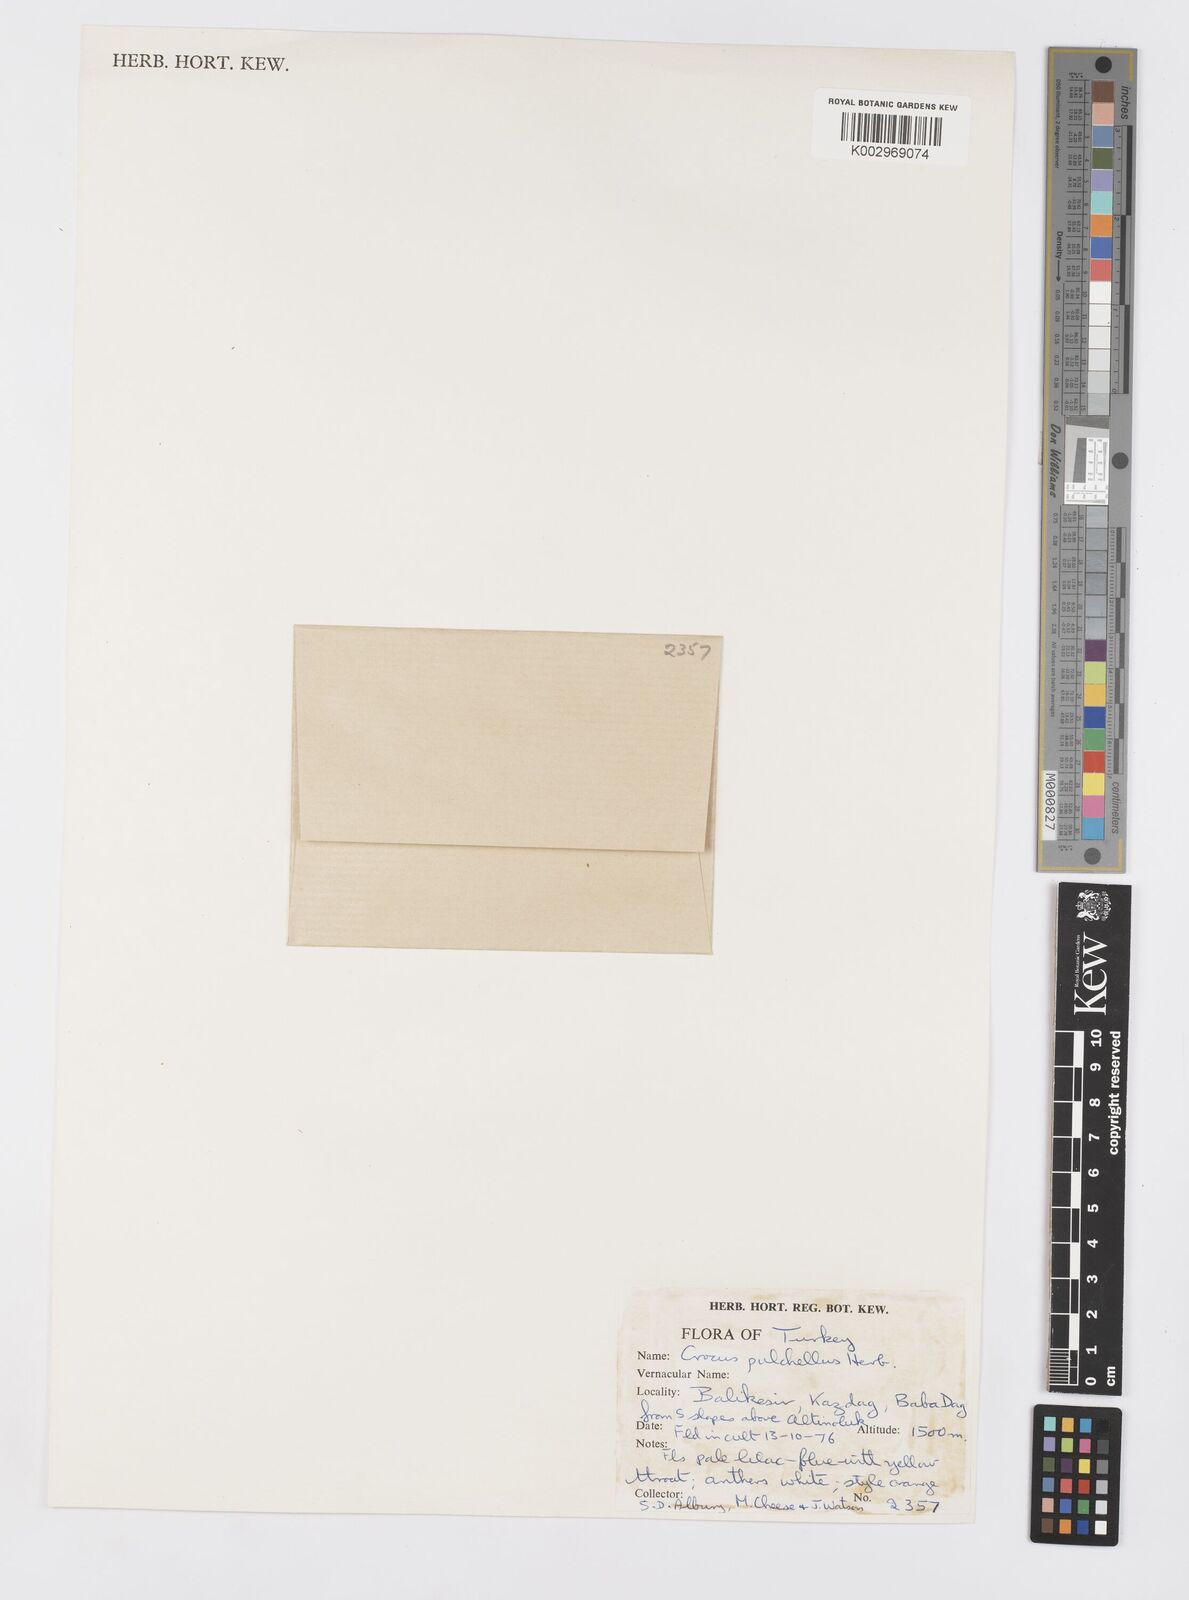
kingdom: Plantae
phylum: Tracheophyta
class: Liliopsida
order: Asparagales
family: Iridaceae
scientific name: Iridaceae
